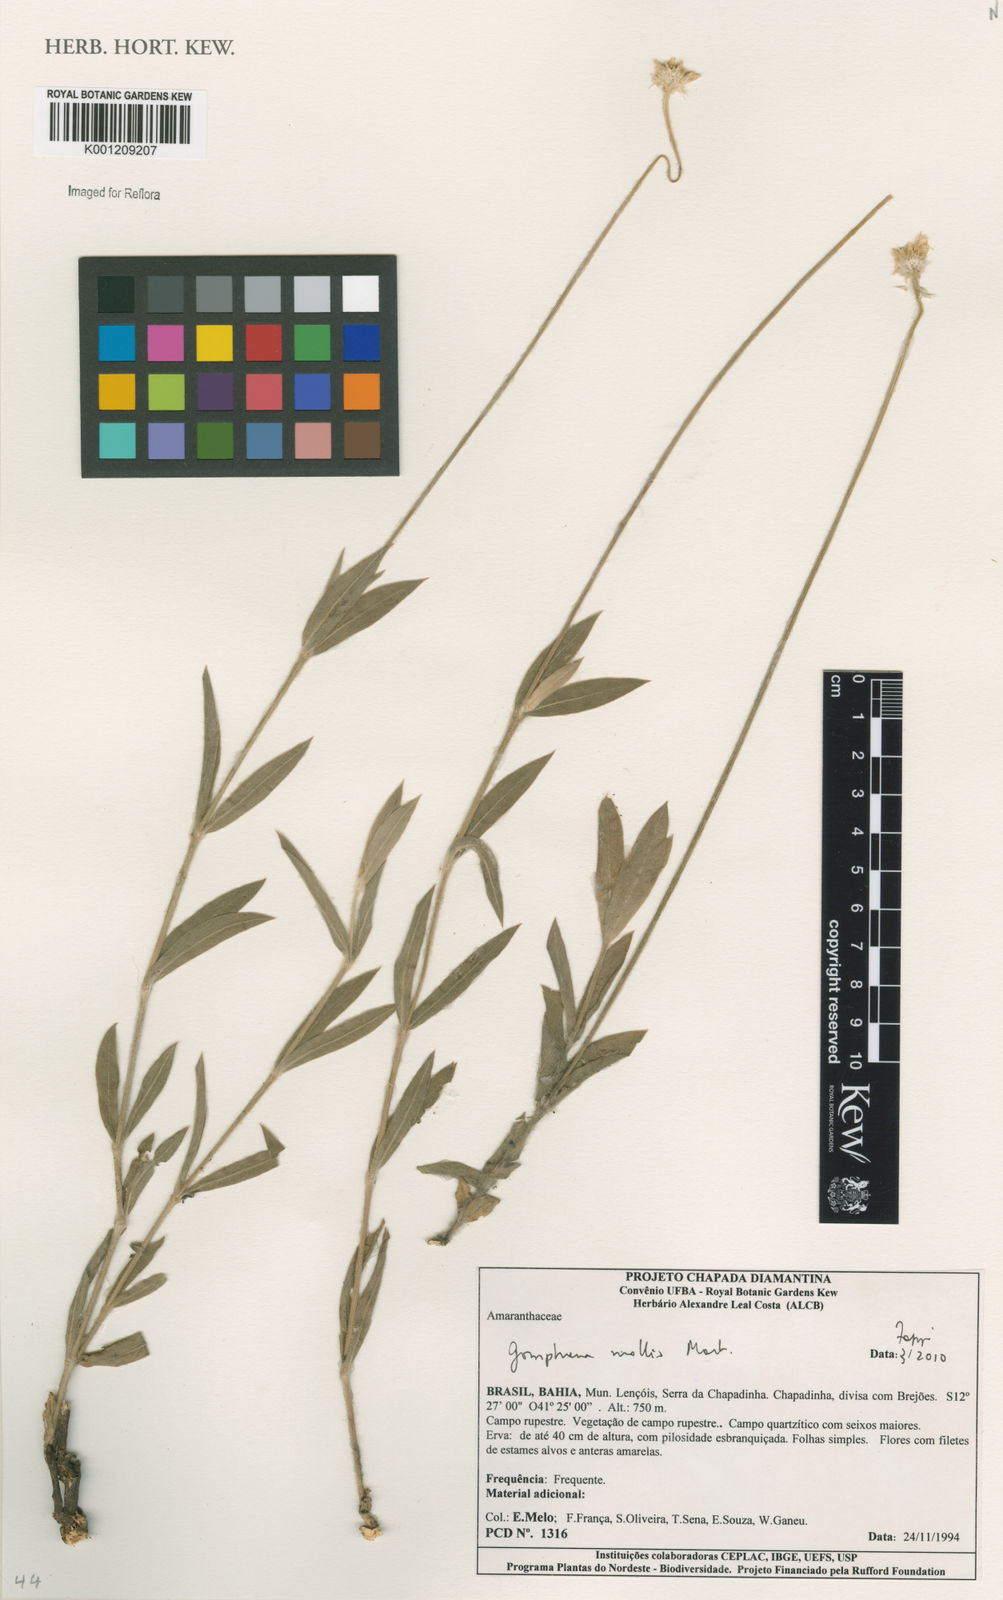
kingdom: Plantae
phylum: Tracheophyta
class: Magnoliopsida
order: Caryophyllales
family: Amaranthaceae
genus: Gomphrena
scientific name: Gomphrena mollis
